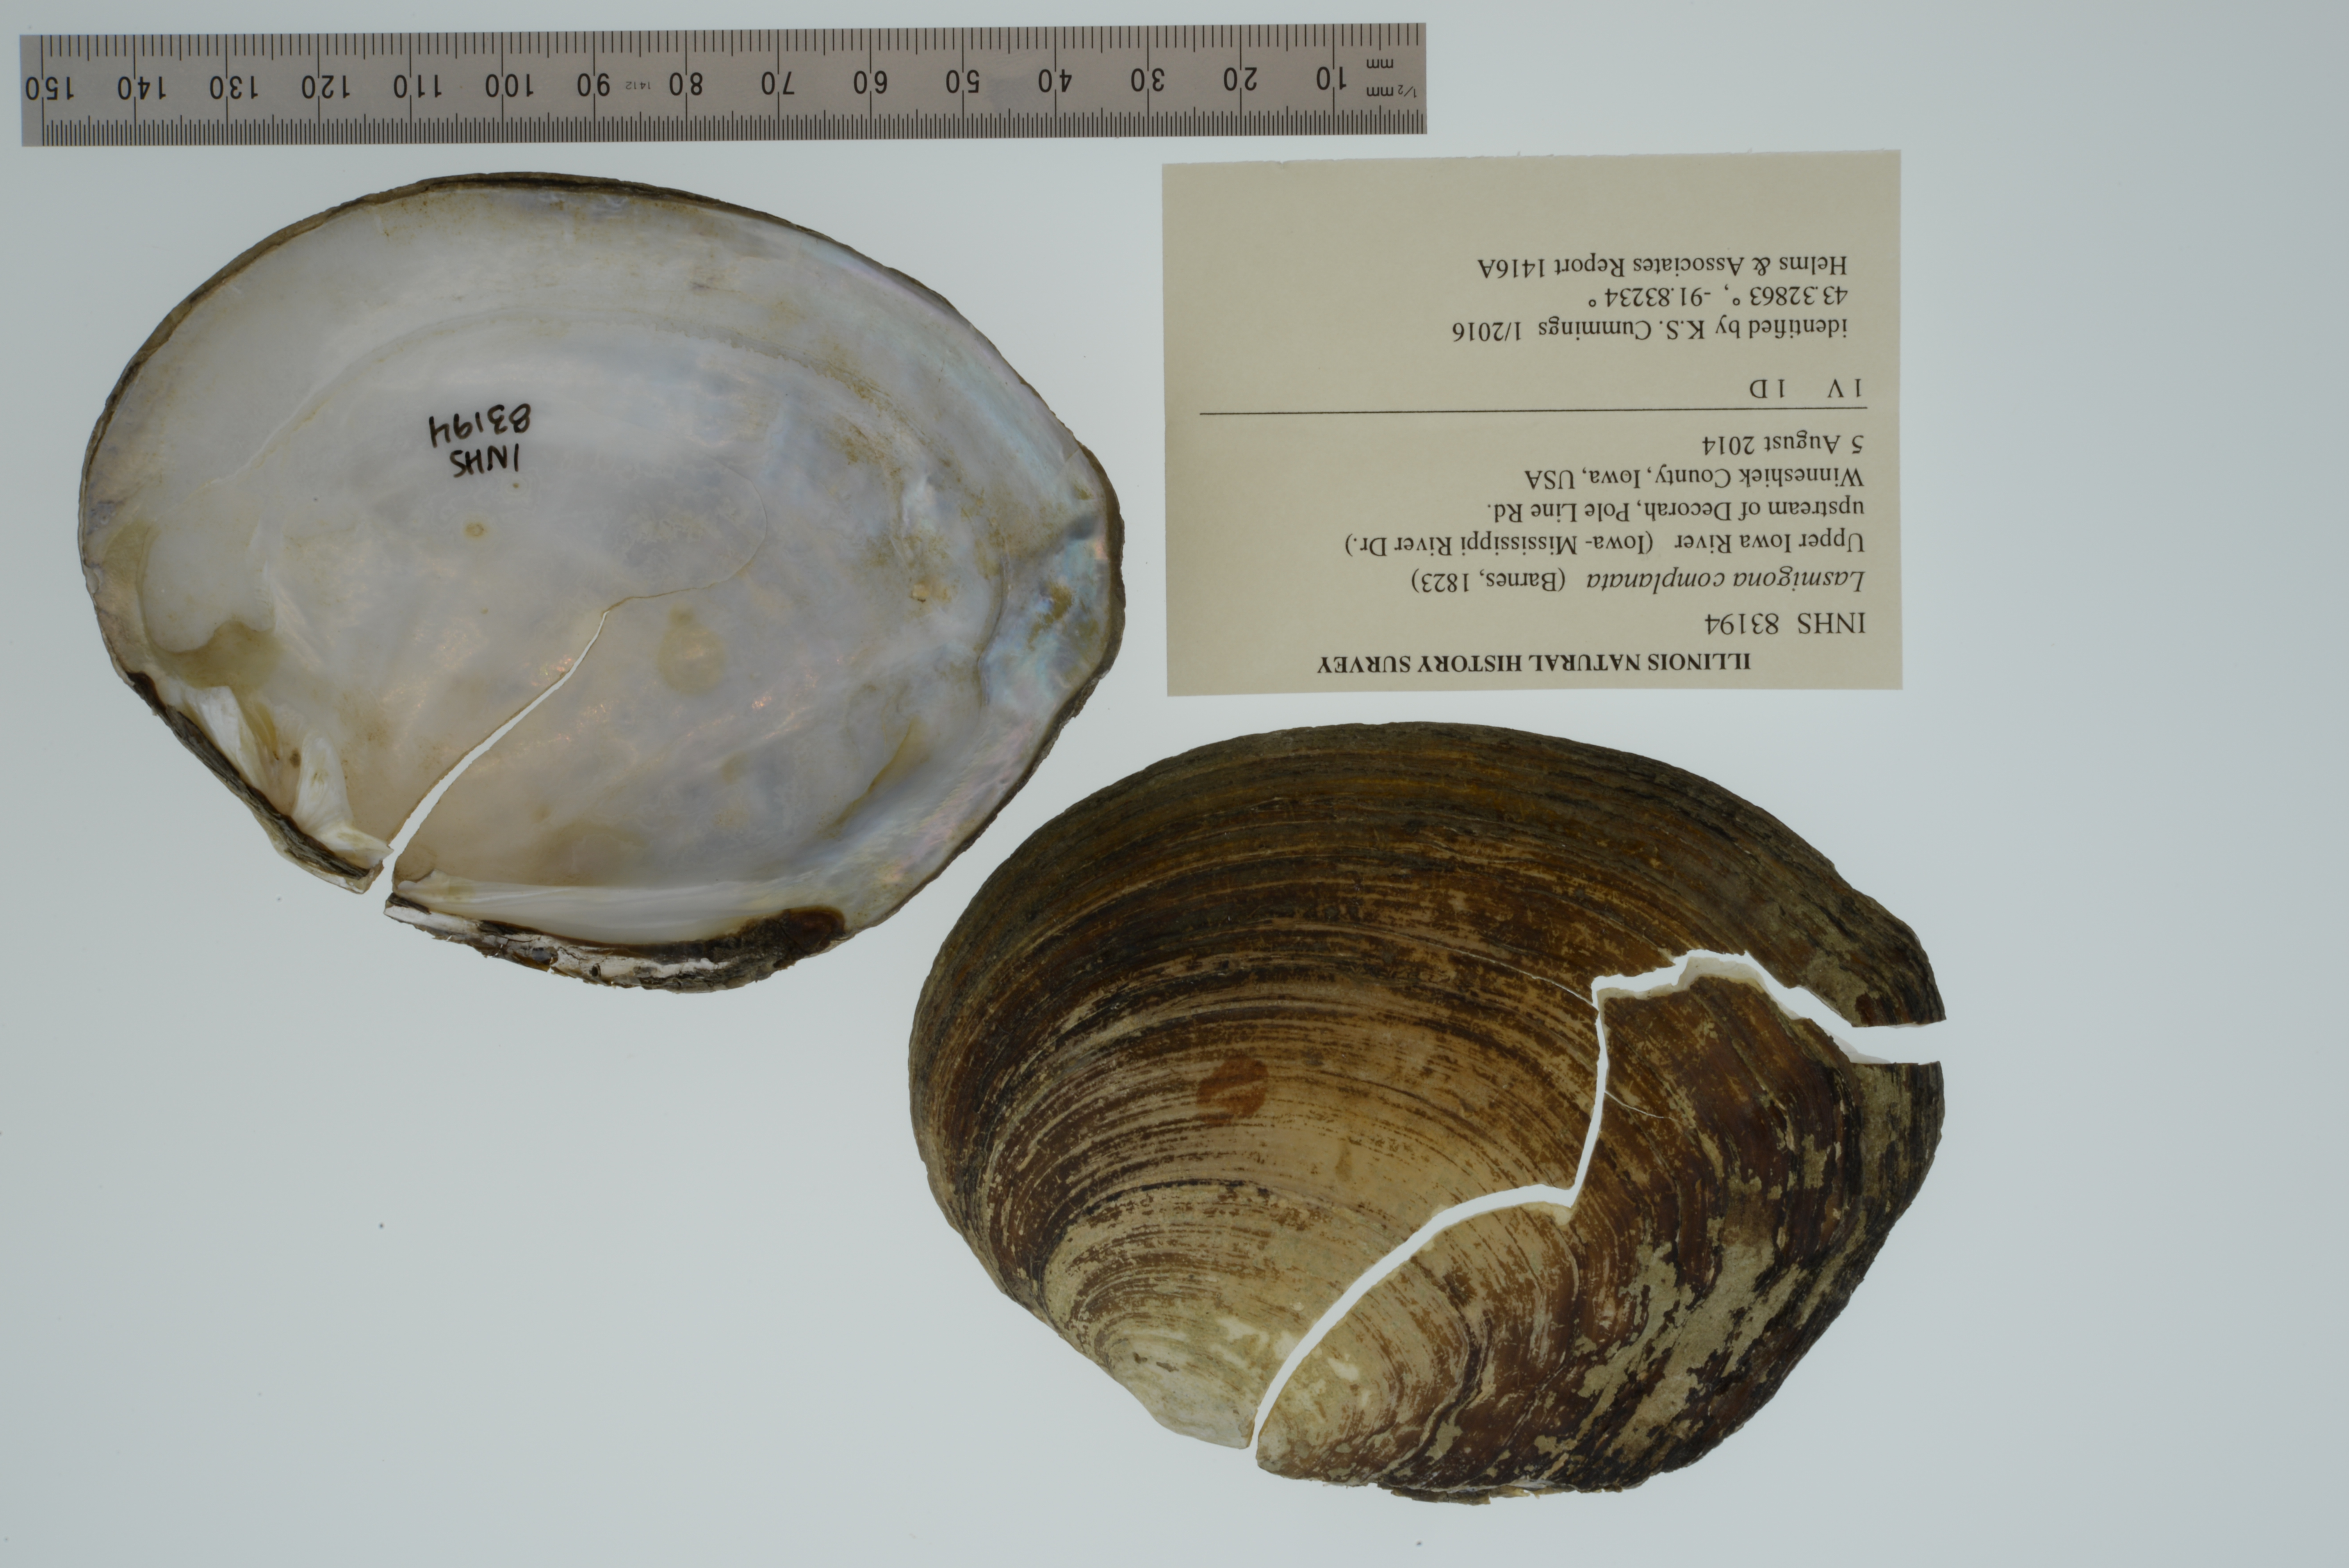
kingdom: Animalia
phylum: Mollusca
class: Bivalvia
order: Unionida
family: Unionidae
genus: Lasmigona
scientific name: Lasmigona complanata
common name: White heelsplitter
